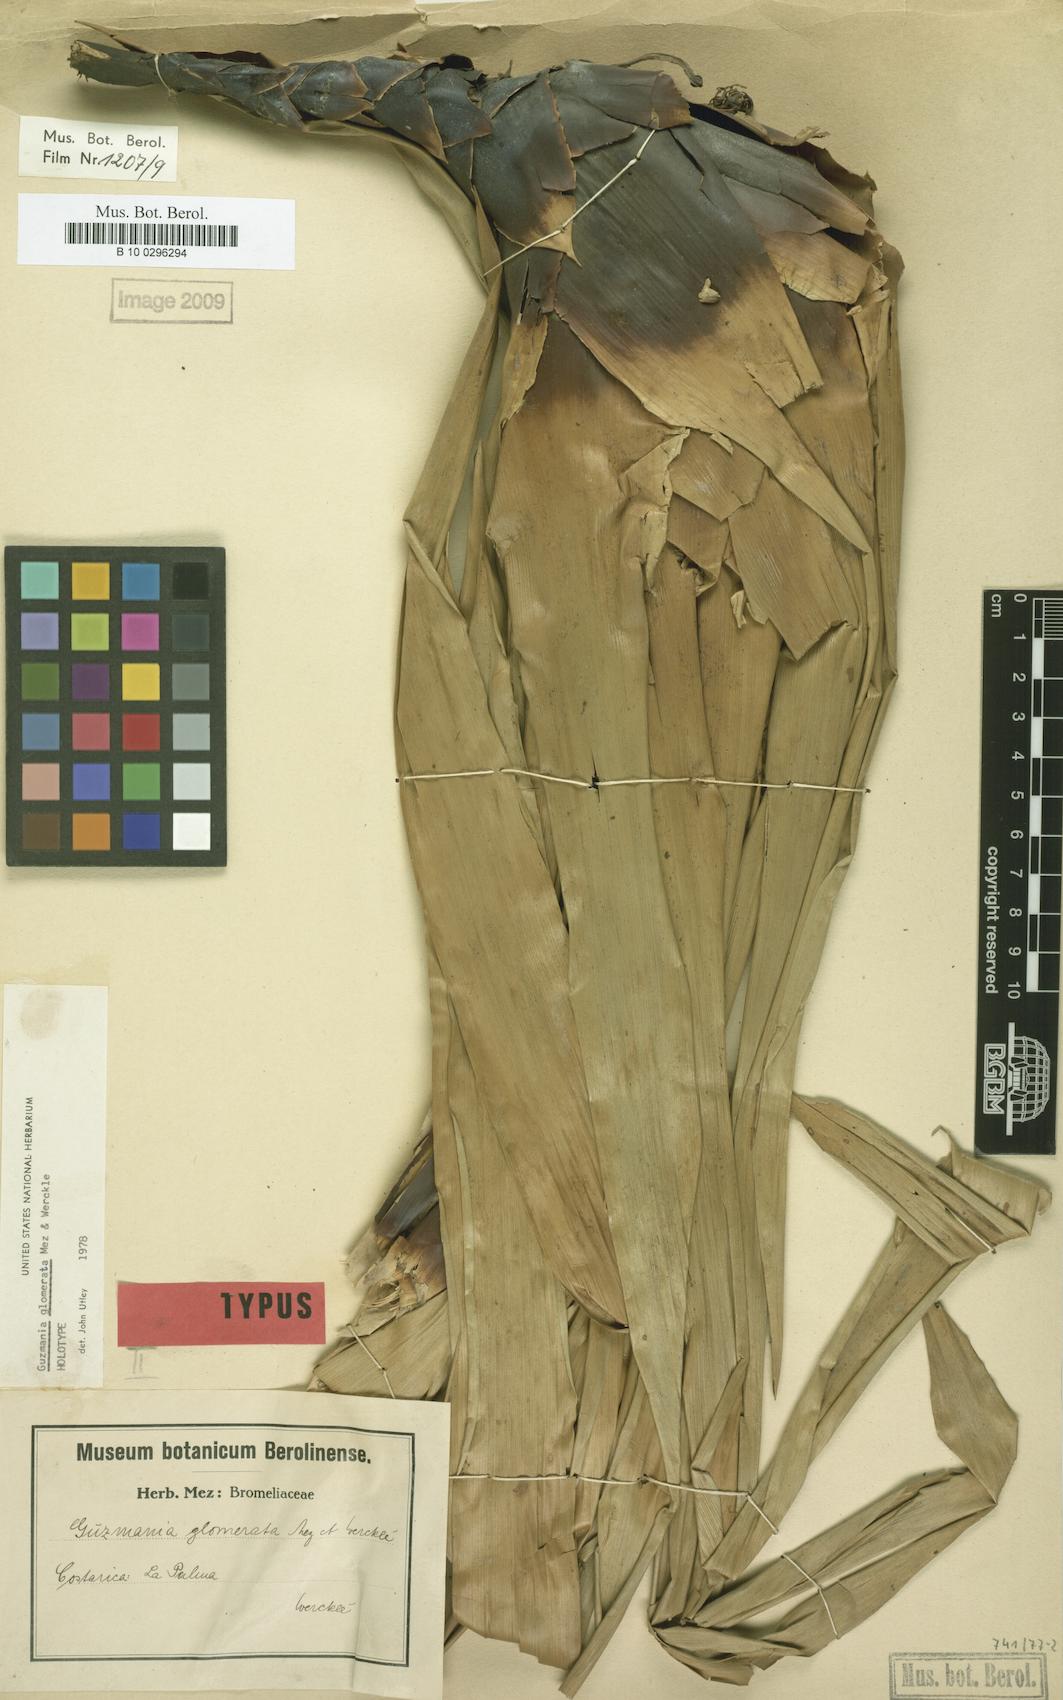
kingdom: Plantae
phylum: Tracheophyta
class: Liliopsida
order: Poales
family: Bromeliaceae
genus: Guzmania
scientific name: Guzmania glomerata
